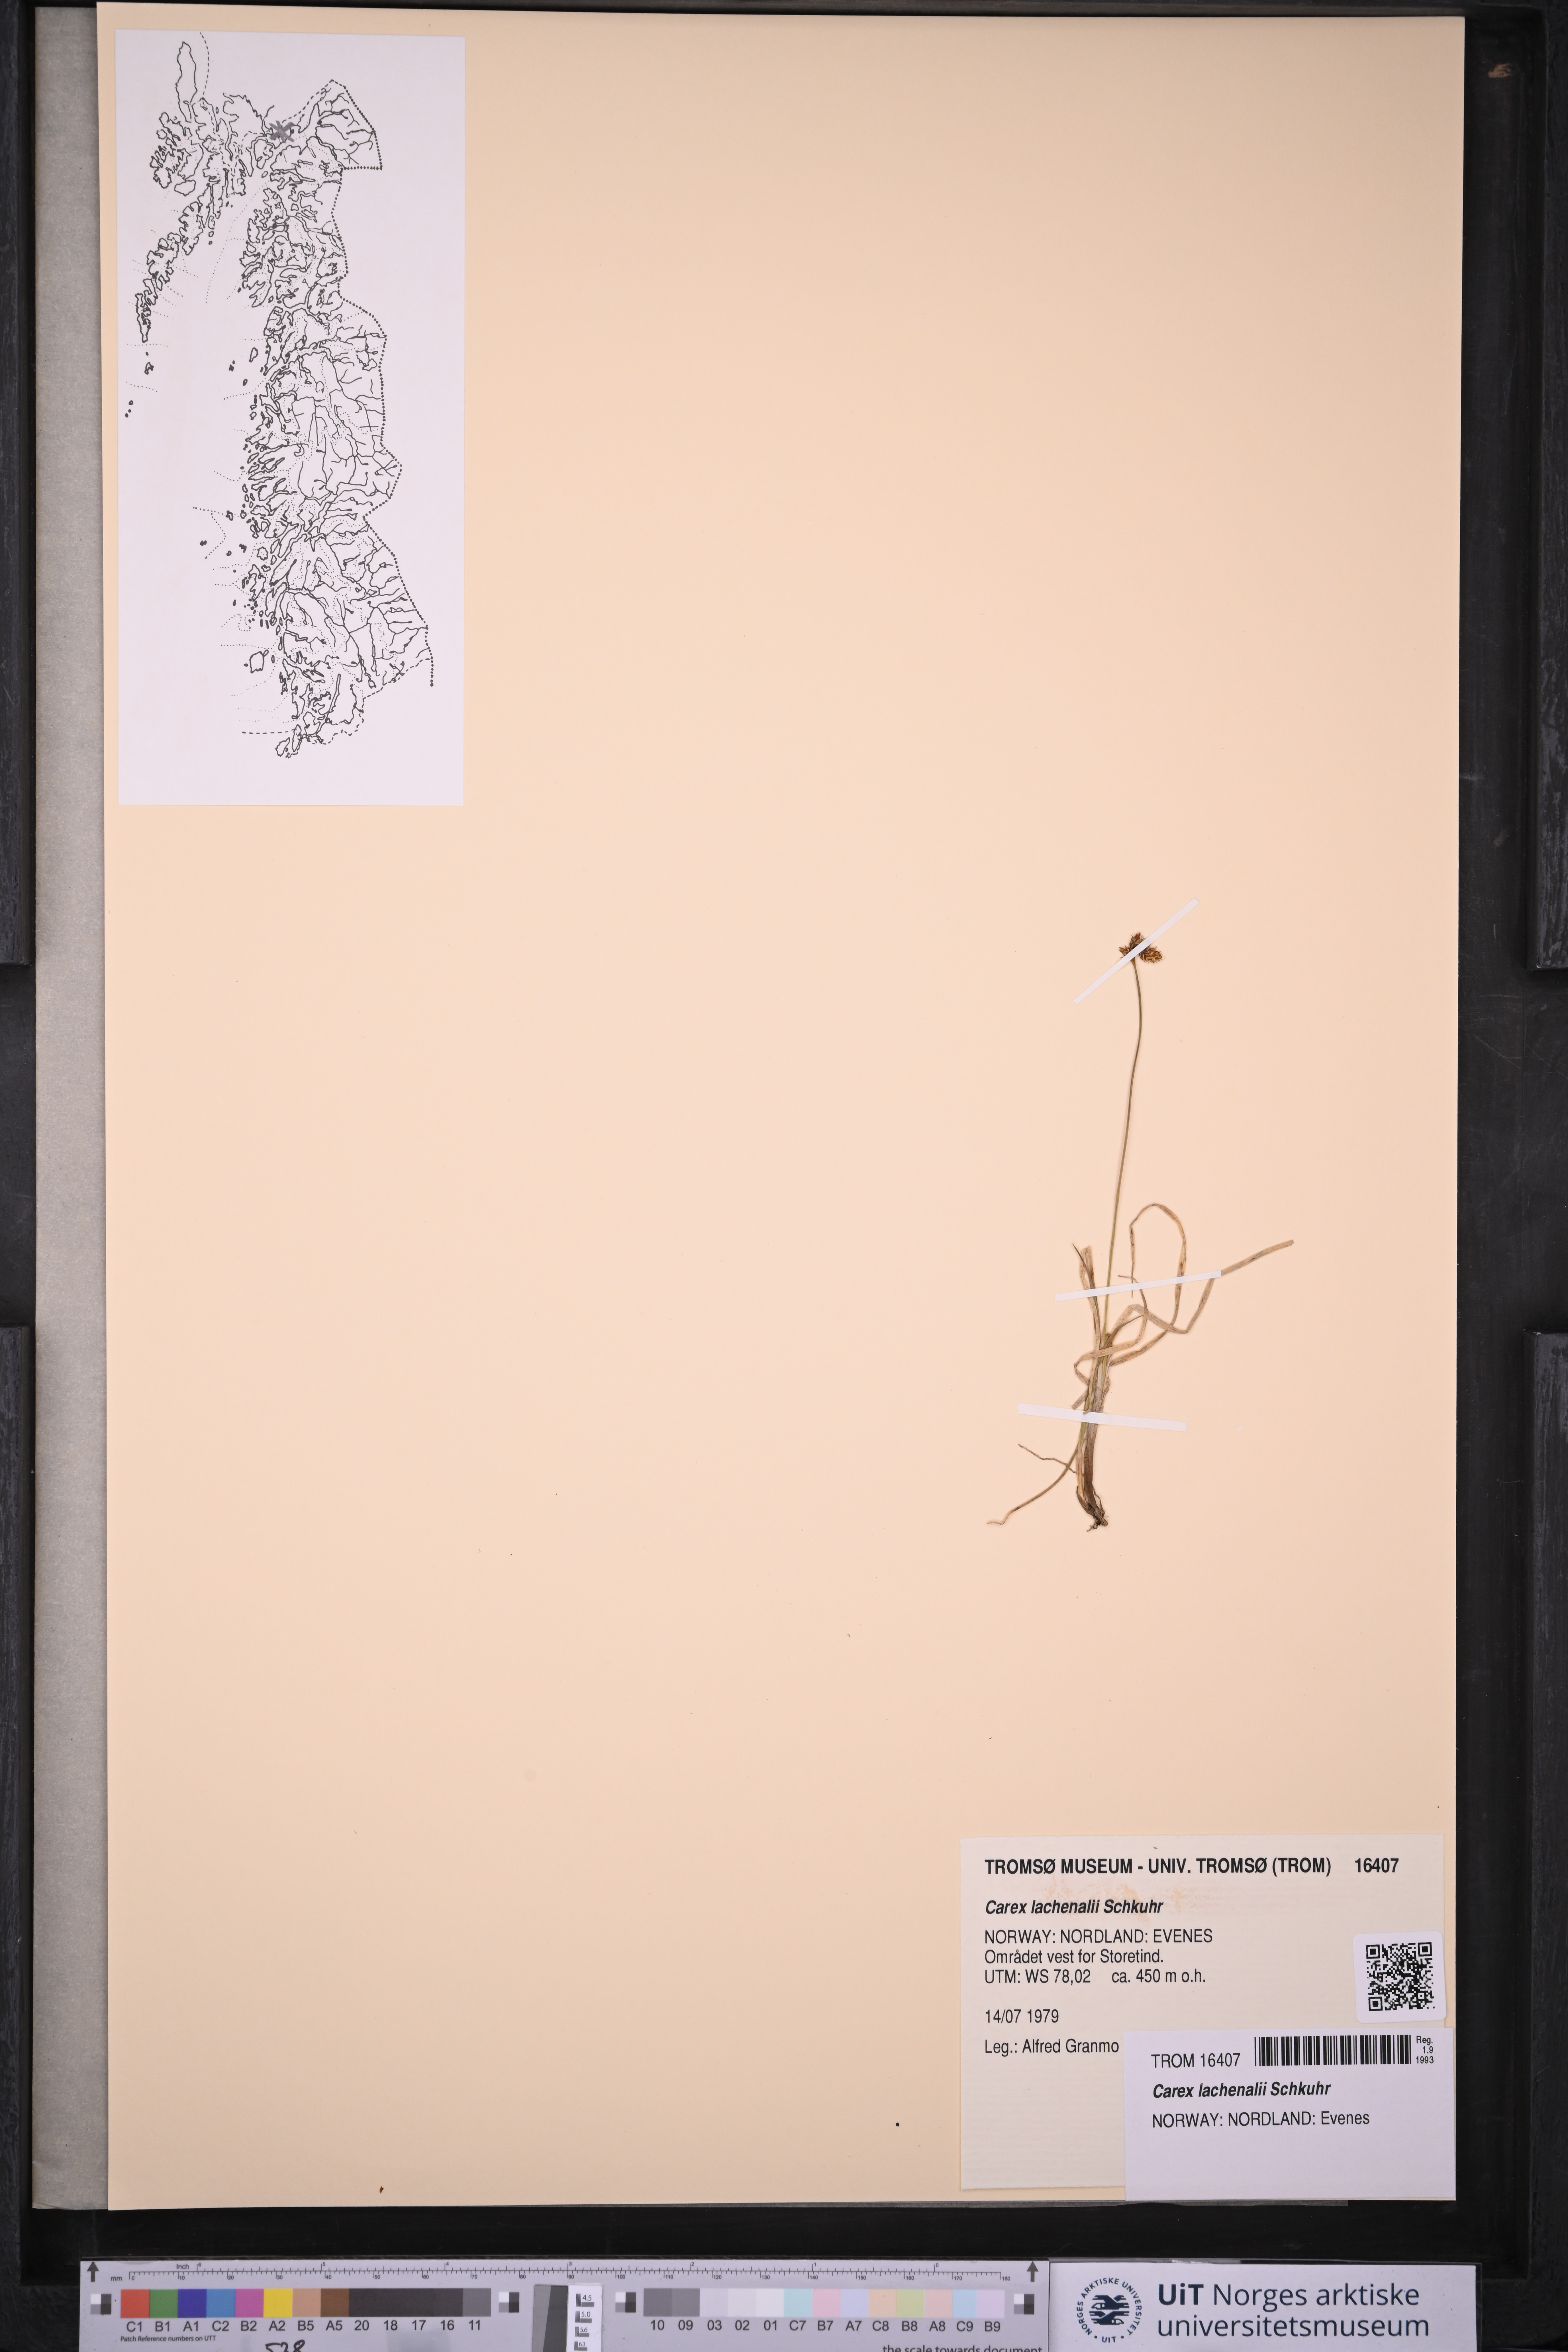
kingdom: Plantae
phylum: Tracheophyta
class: Liliopsida
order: Poales
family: Cyperaceae
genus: Carex
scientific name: Carex lachenalii
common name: Hare's-foot sedge
